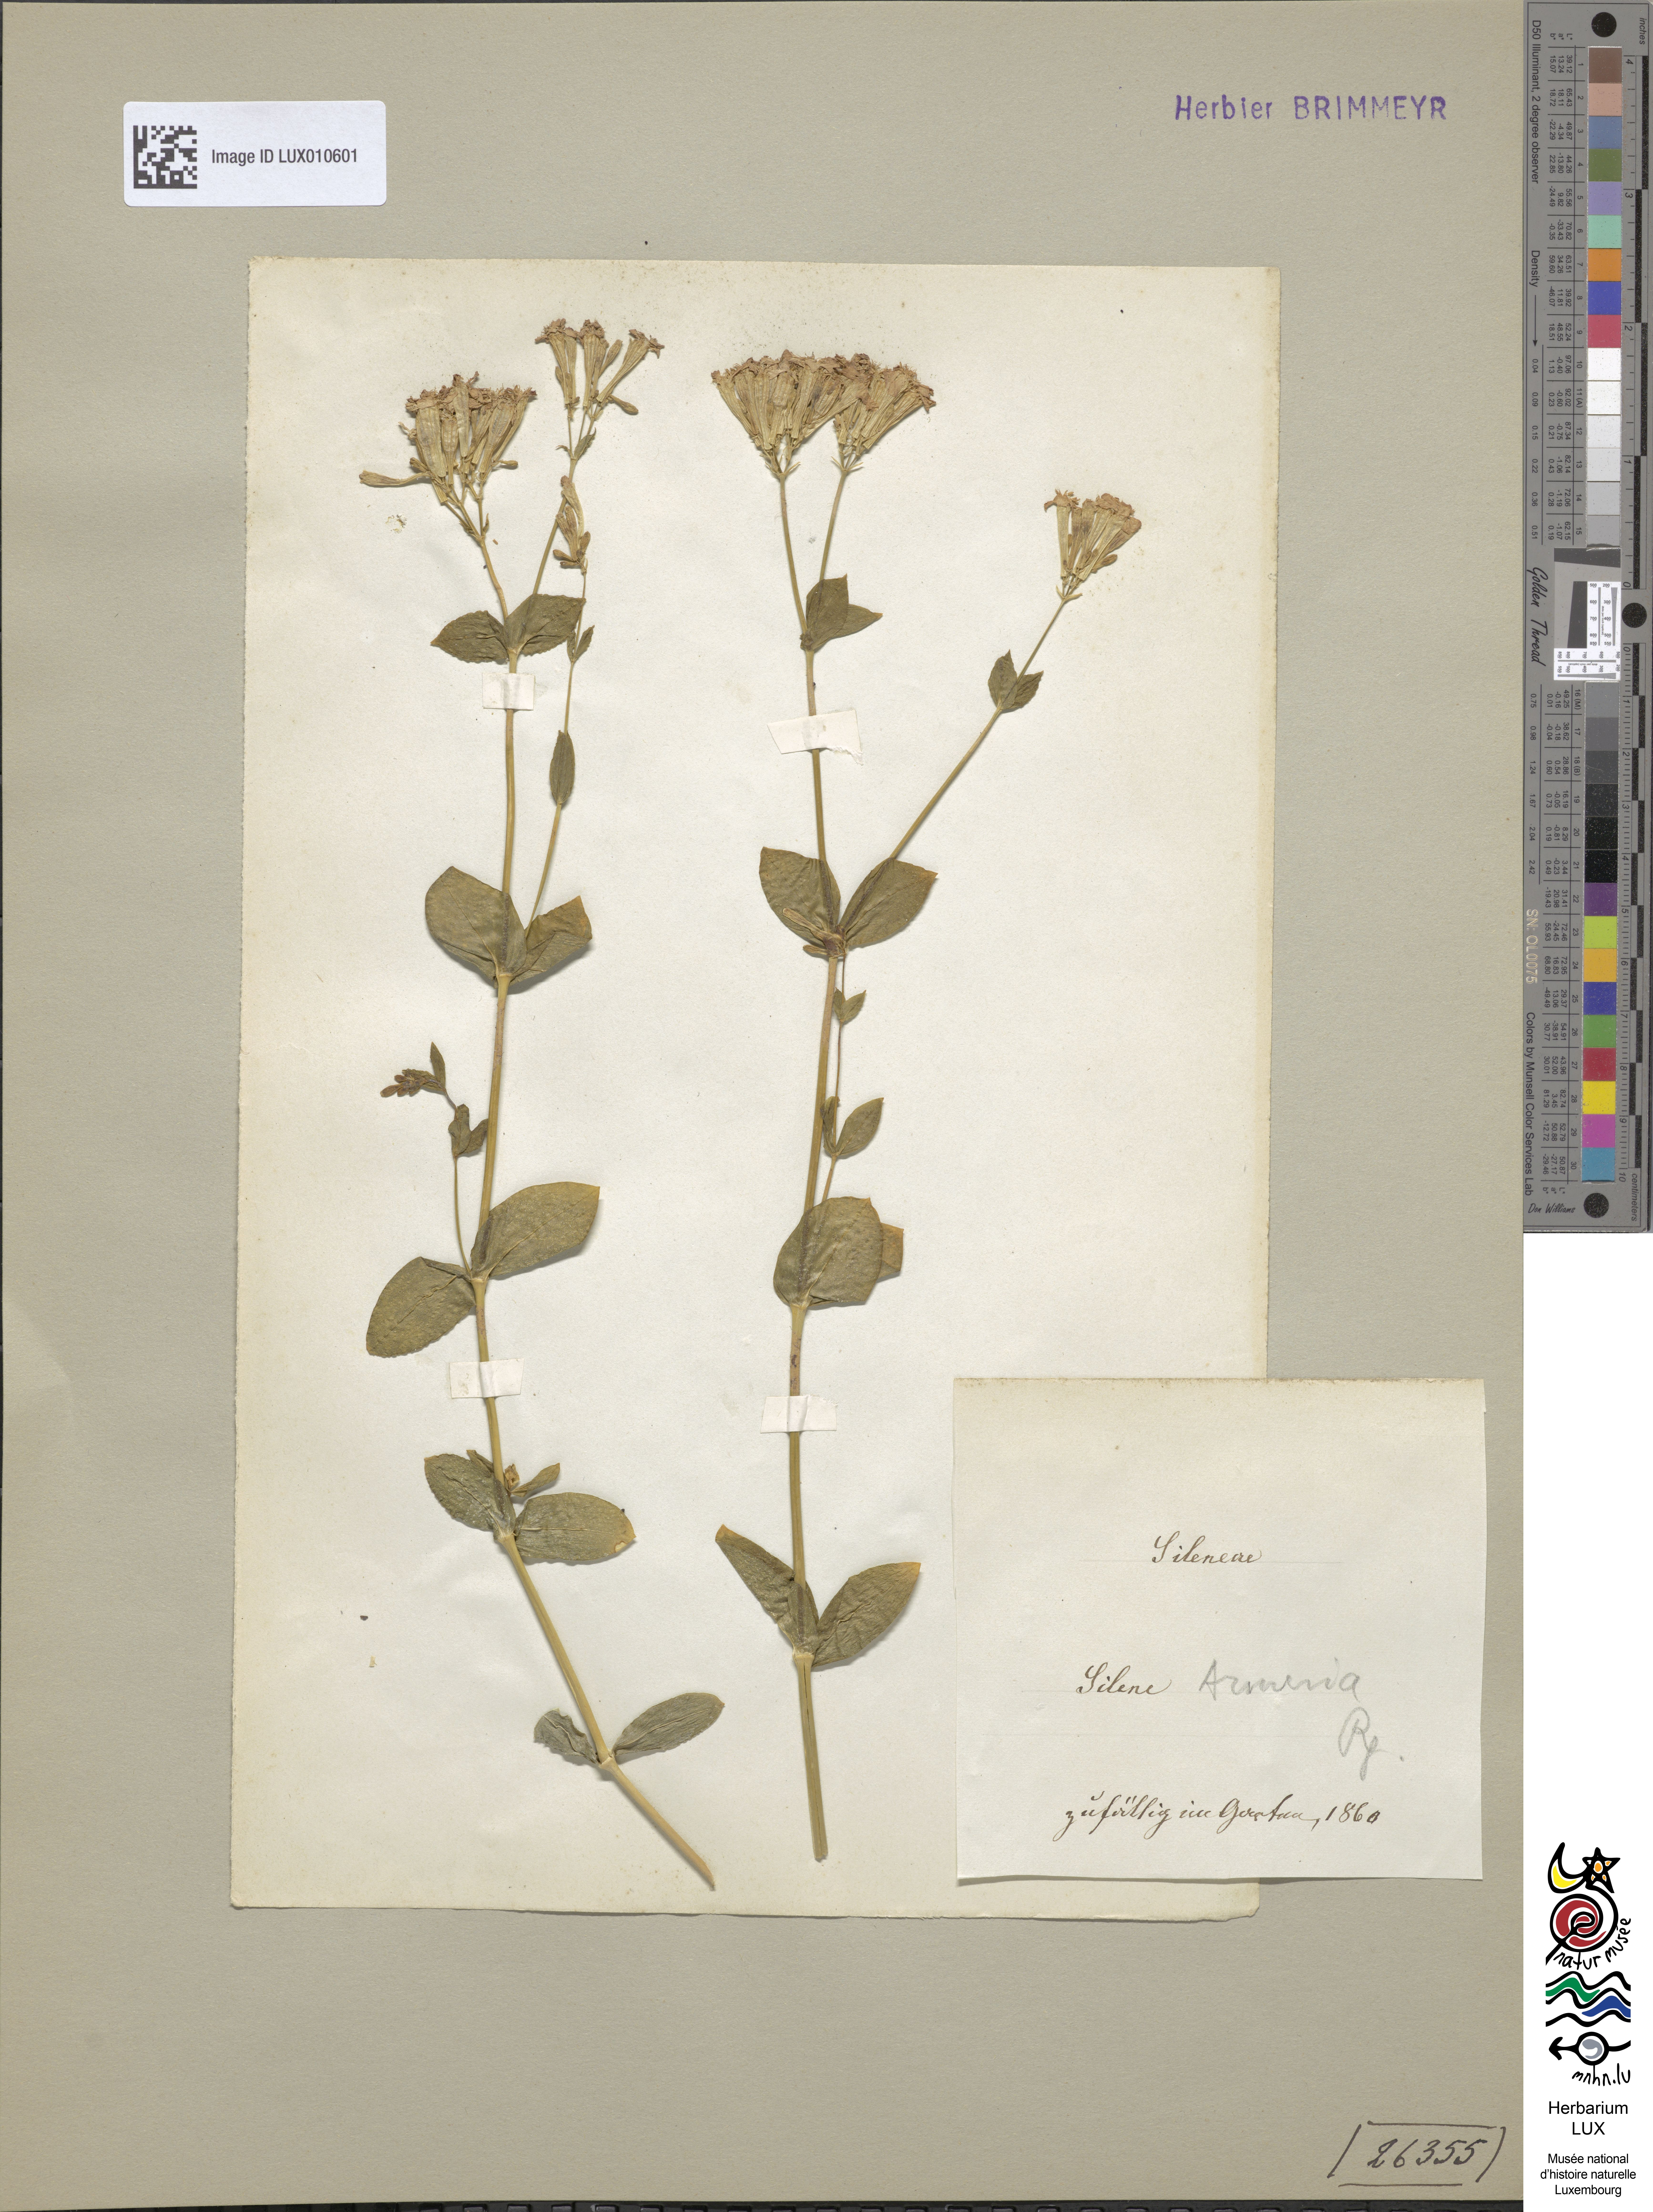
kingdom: Plantae
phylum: Tracheophyta
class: Magnoliopsida
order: Caryophyllales
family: Caryophyllaceae
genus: Atocion
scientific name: Atocion armeria
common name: Sweet william catchfly
